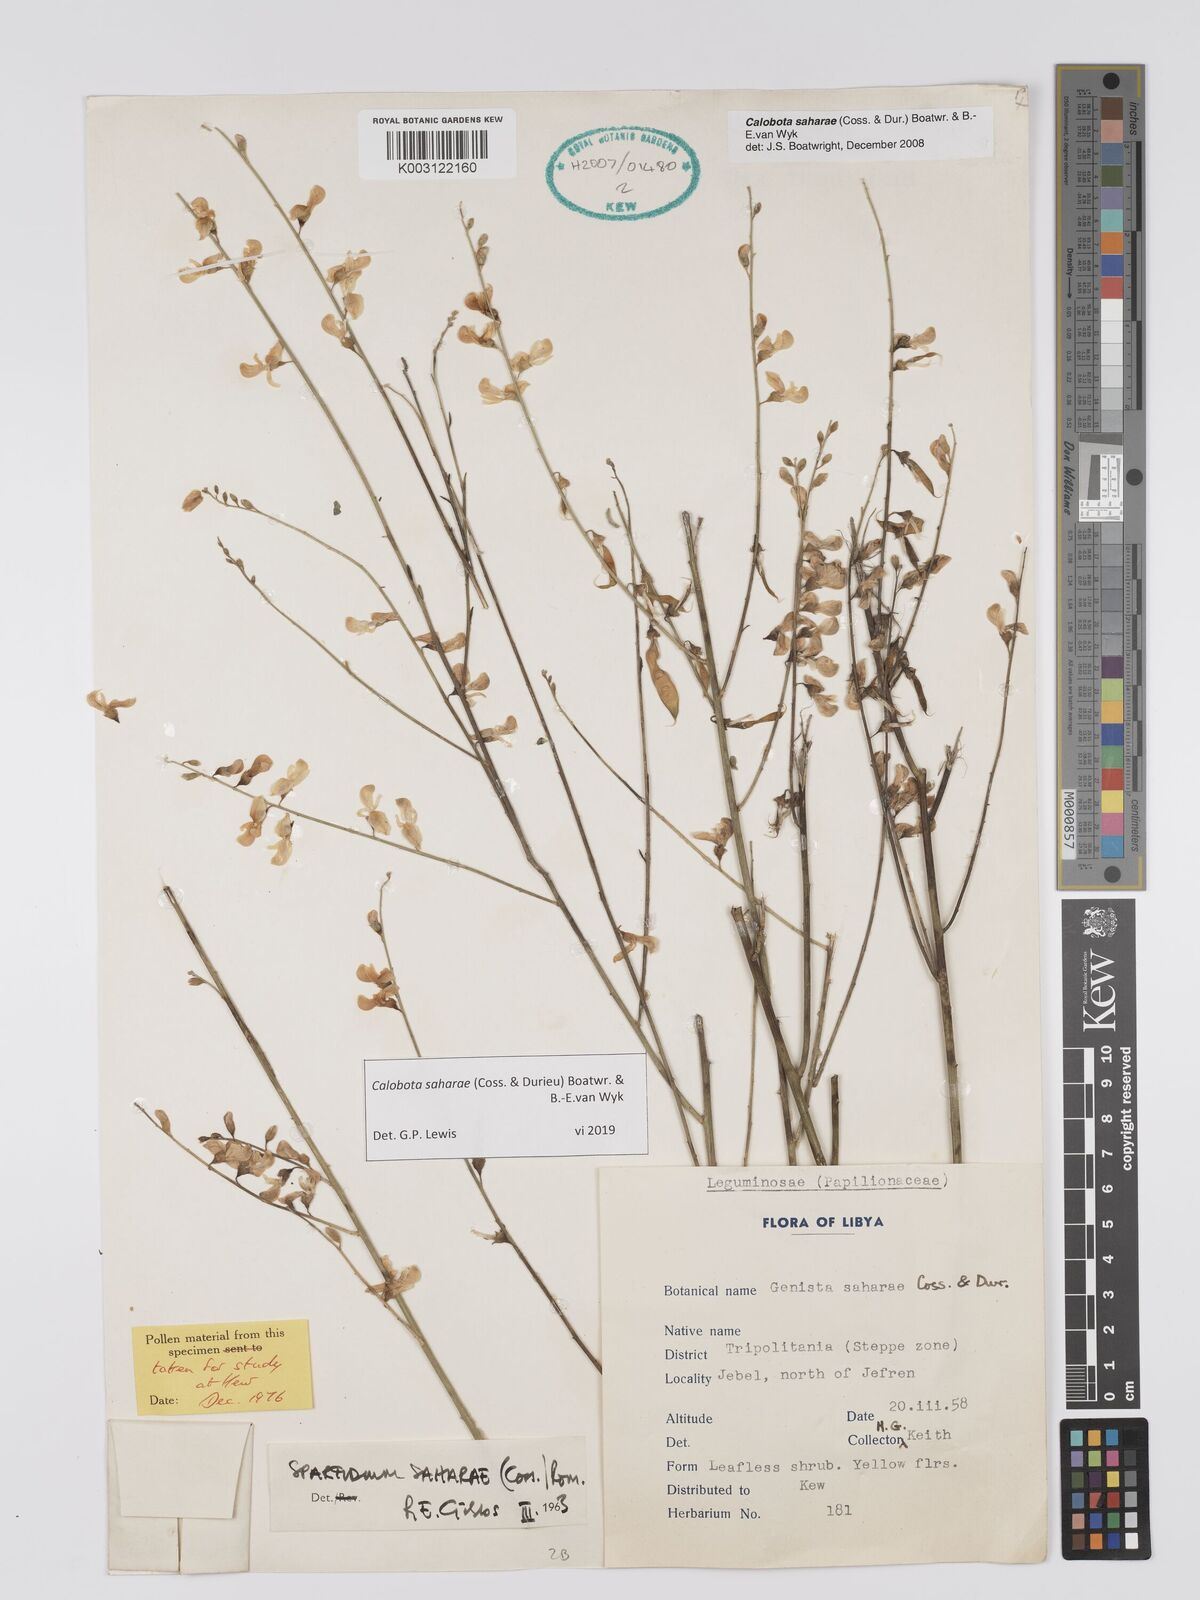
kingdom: Plantae
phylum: Tracheophyta
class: Magnoliopsida
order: Fabales
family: Fabaceae
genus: Calobota
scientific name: Calobota saharae
